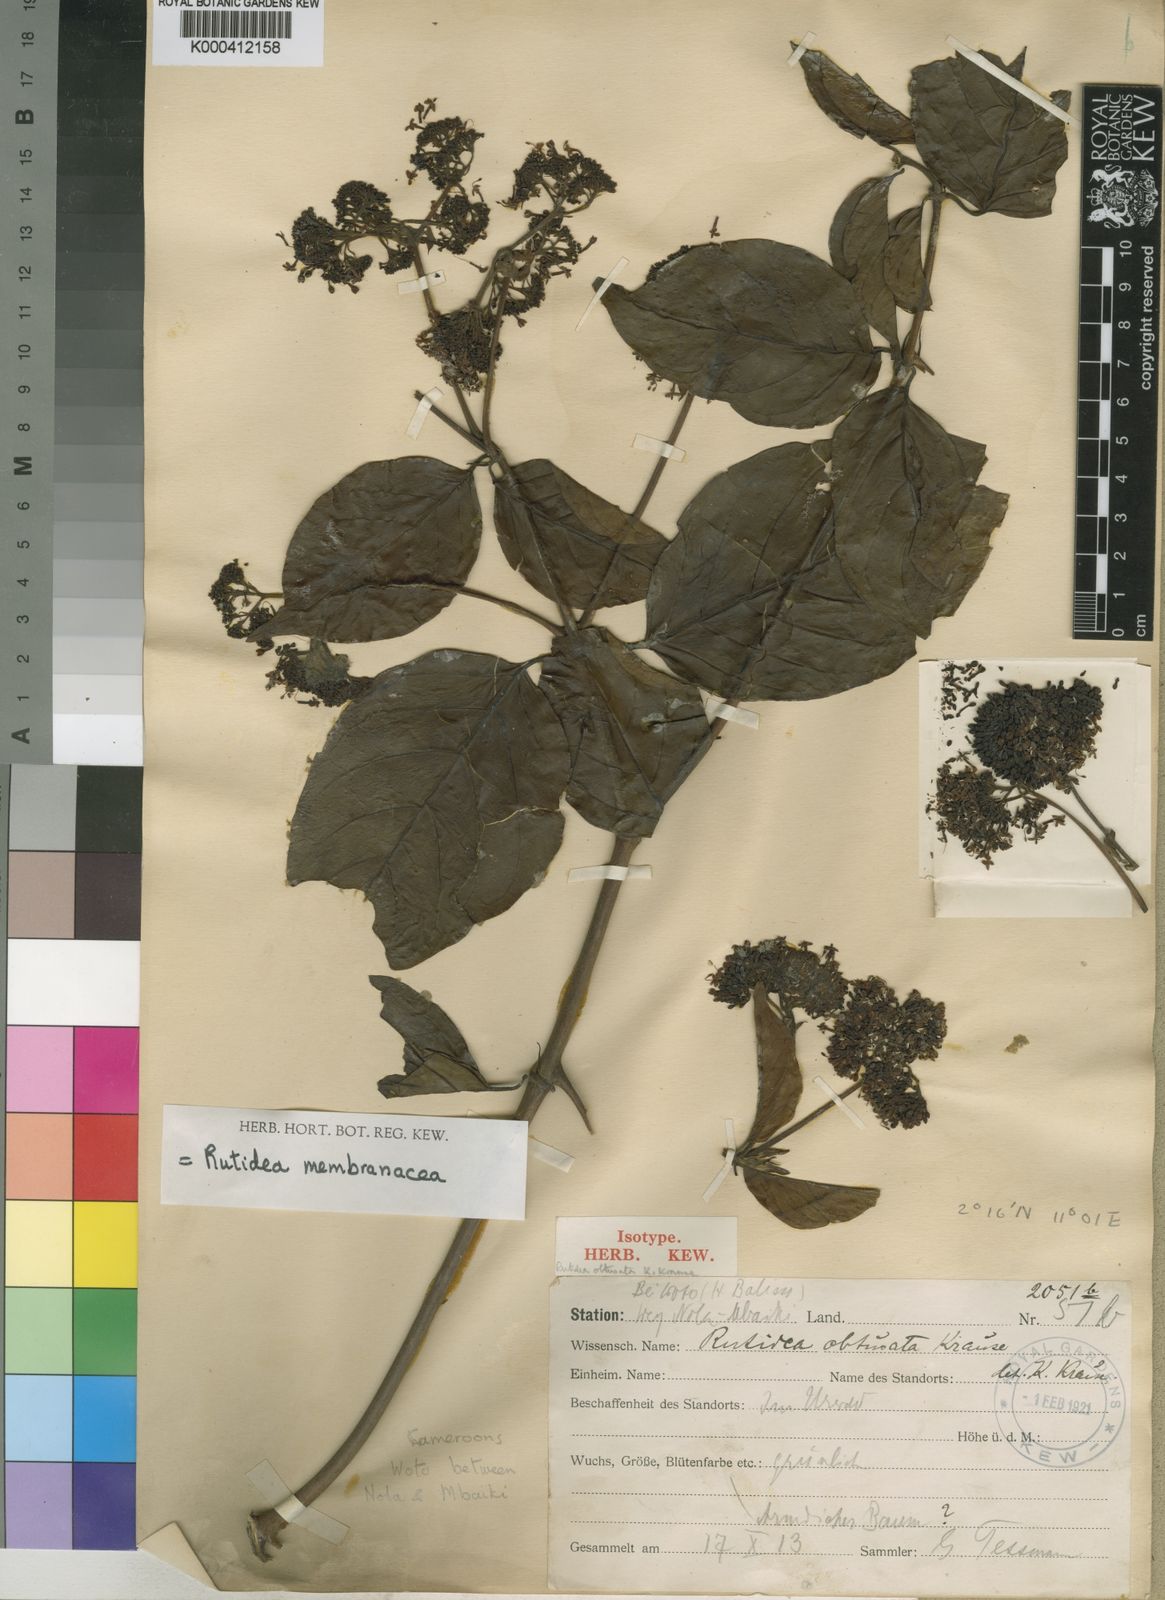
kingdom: Plantae
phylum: Tracheophyta
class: Magnoliopsida
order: Gentianales
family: Rubiaceae
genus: Rutidea
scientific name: Rutidea membranacea
